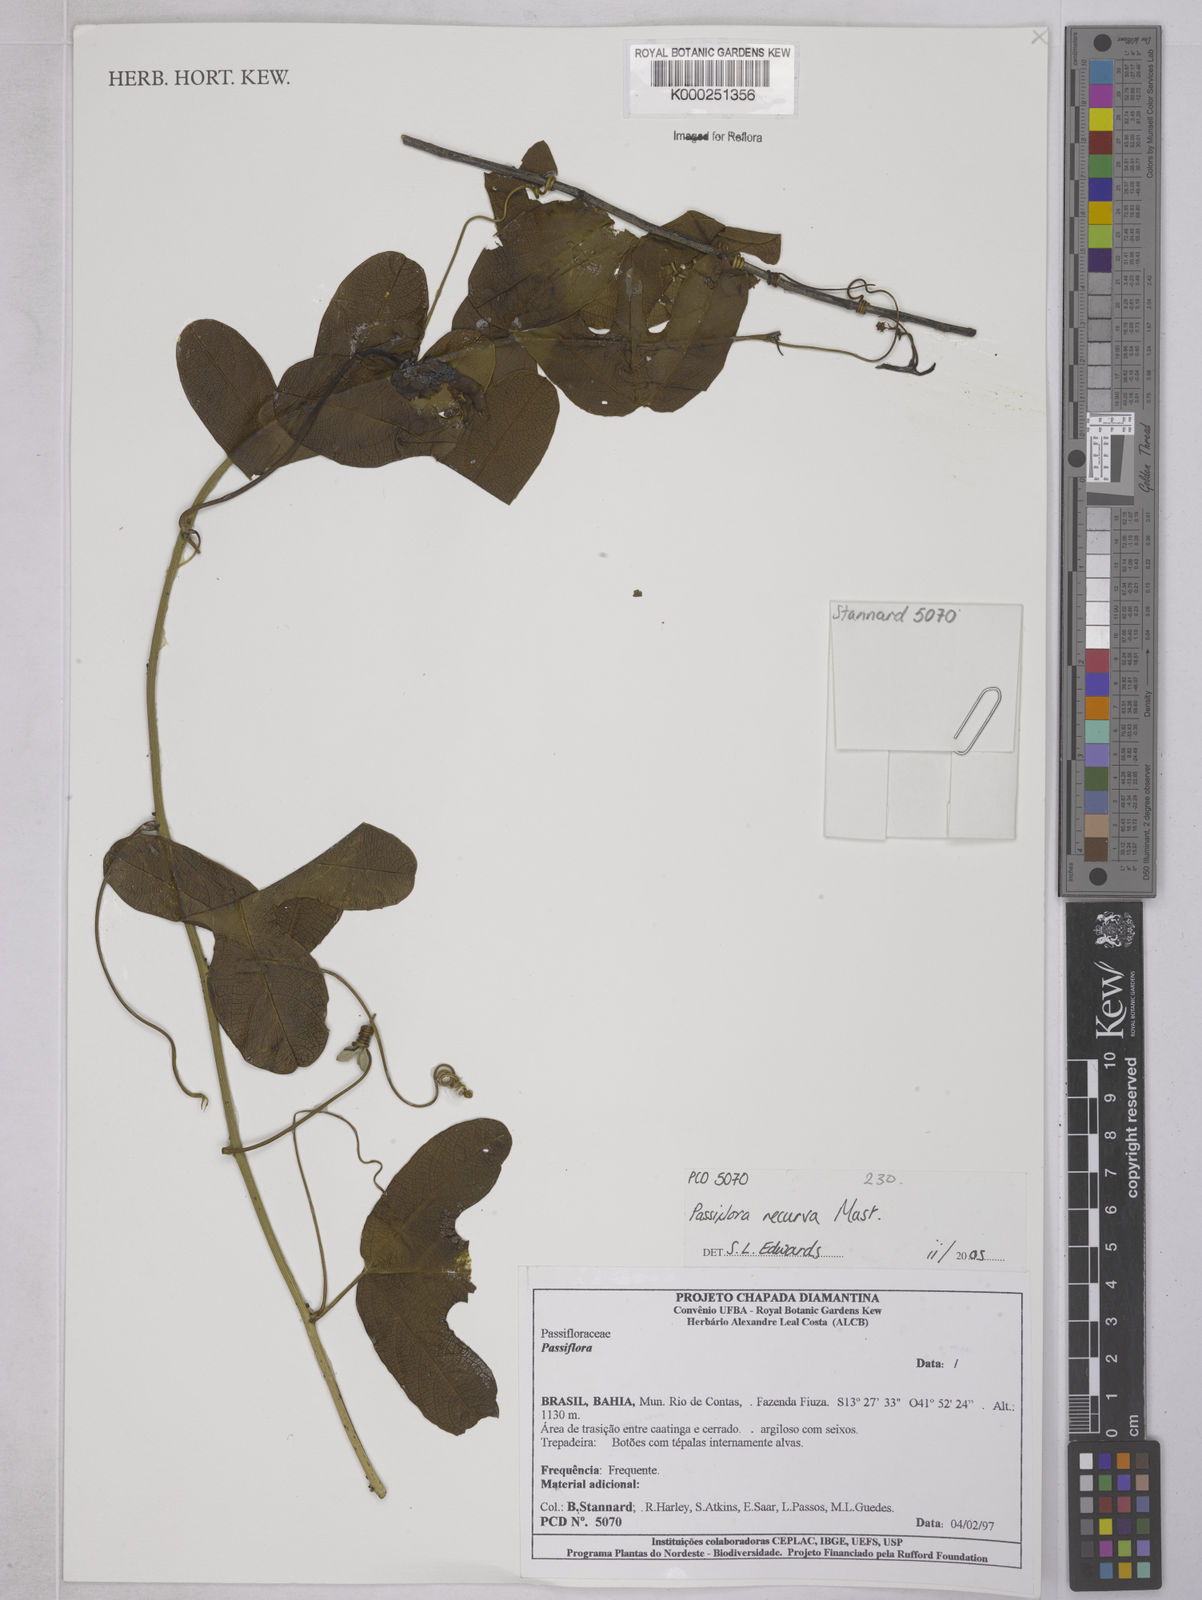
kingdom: Plantae
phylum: Tracheophyta
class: Magnoliopsida
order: Malpighiales
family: Passifloraceae
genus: Passiflora
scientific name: Passiflora recurva
